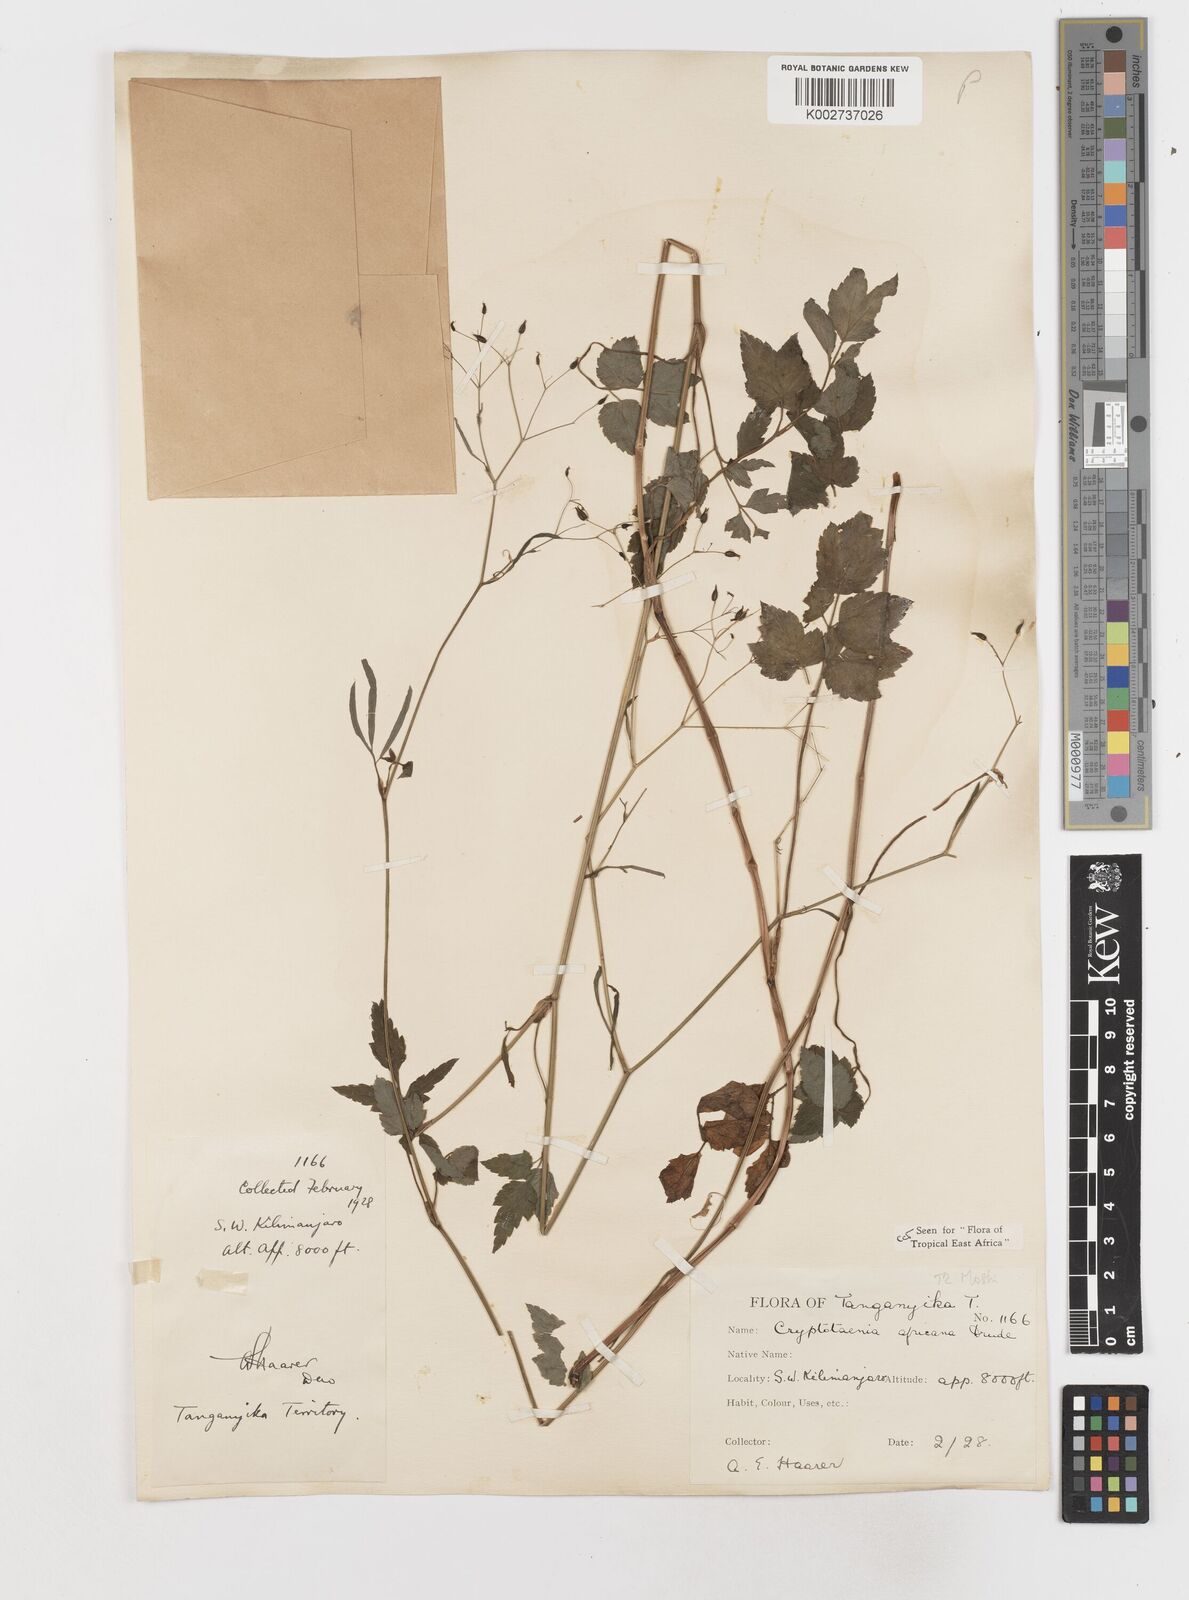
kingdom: Plantae
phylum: Tracheophyta
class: Magnoliopsida
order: Apiales
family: Apiaceae
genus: Cryptotaenia
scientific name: Cryptotaenia africana
